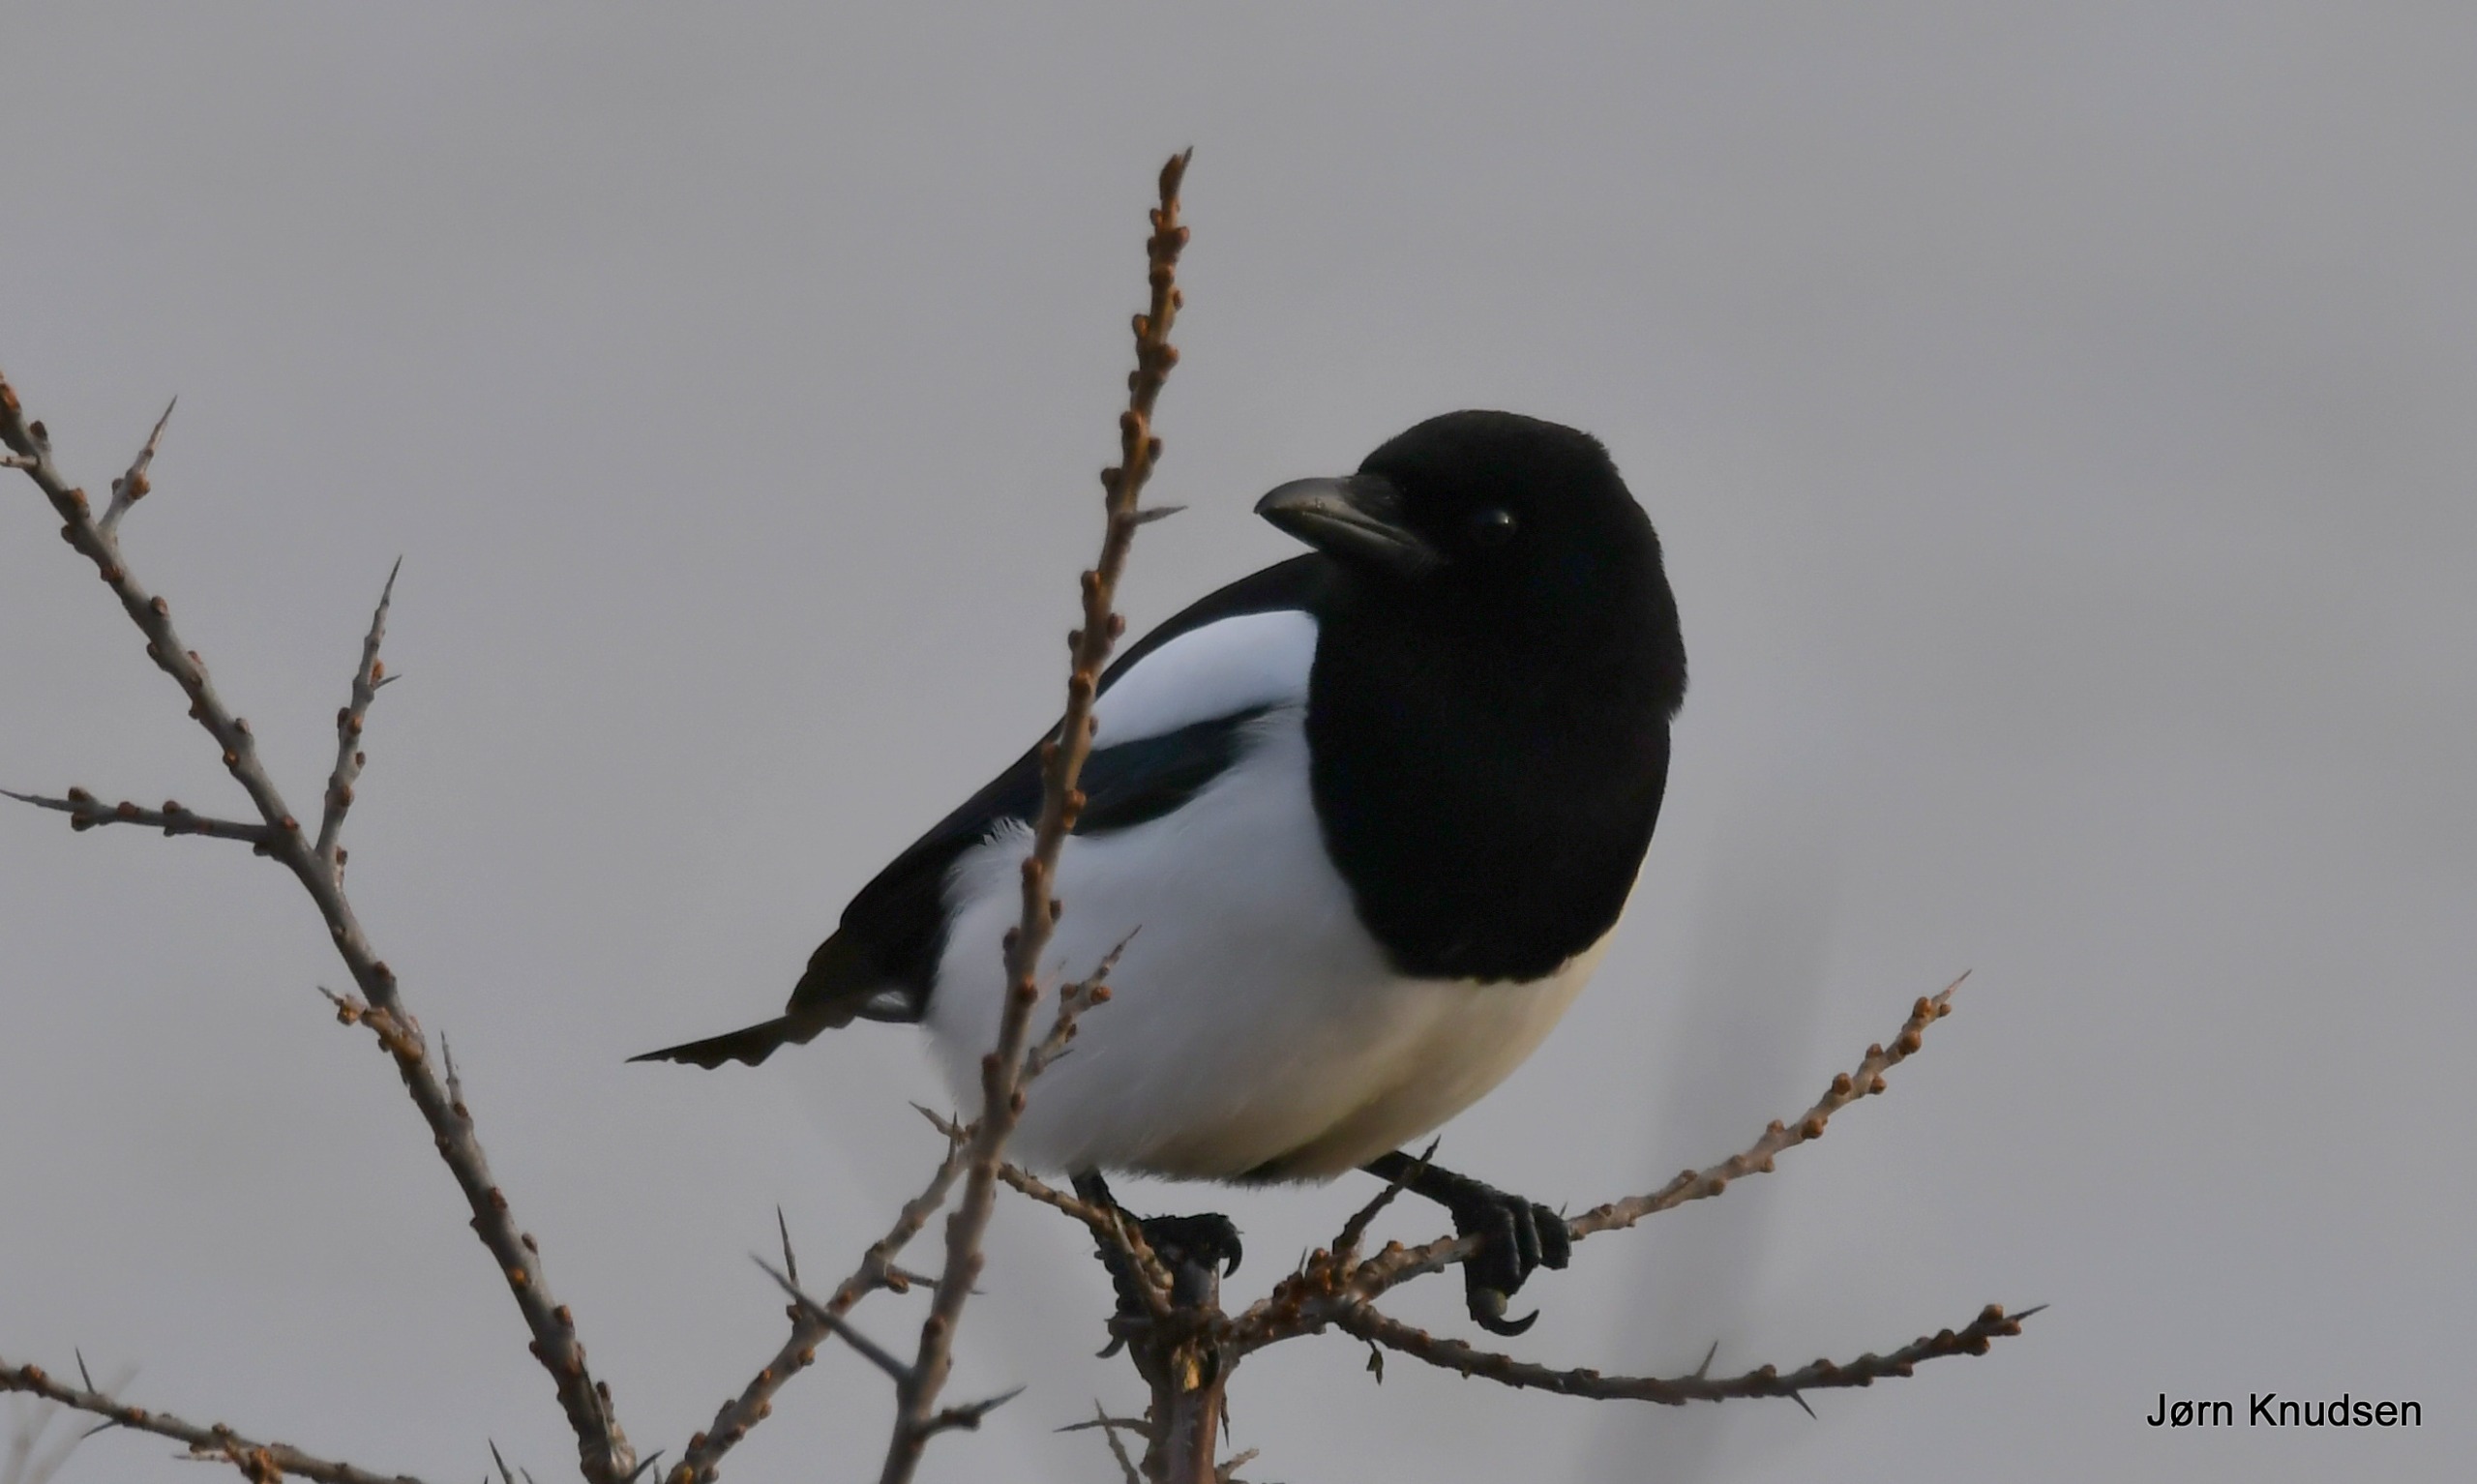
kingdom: Animalia
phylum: Chordata
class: Aves
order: Passeriformes
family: Corvidae
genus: Pica
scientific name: Pica pica
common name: Husskade
